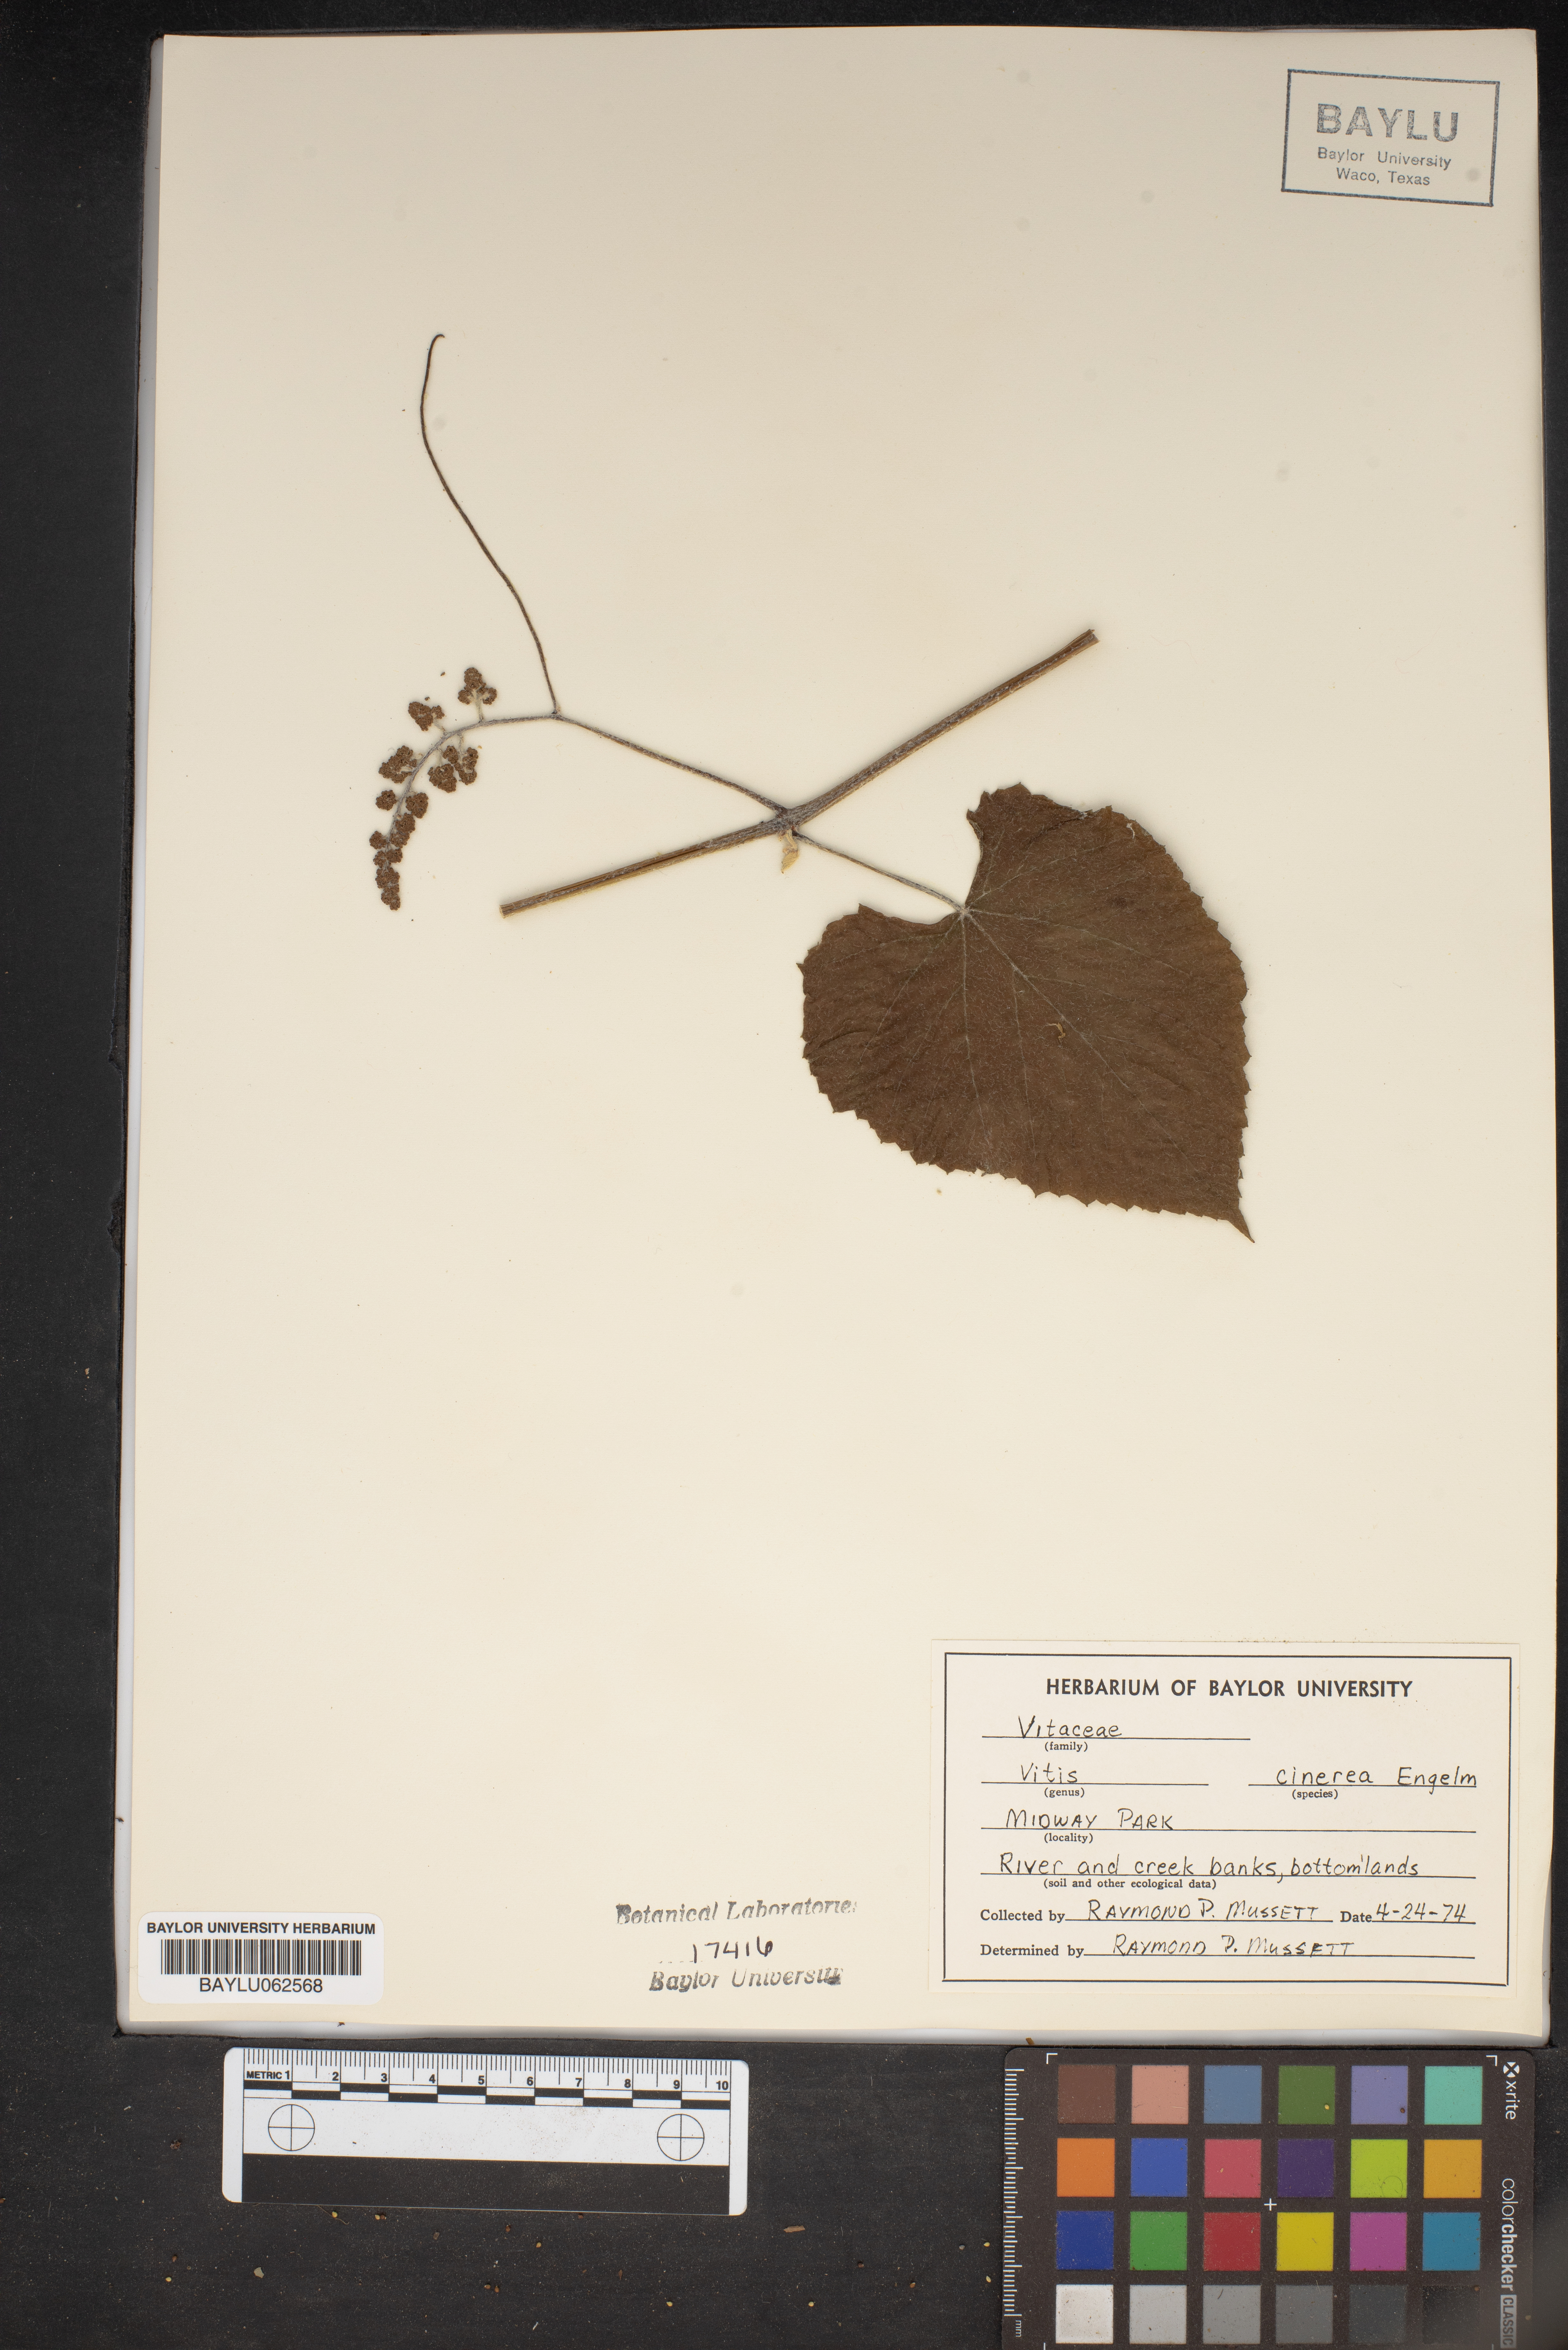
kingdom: Plantae
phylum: Tracheophyta
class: Magnoliopsida
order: Vitales
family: Vitaceae
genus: Vitis
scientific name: Vitis cinerea
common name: Ashy grape
